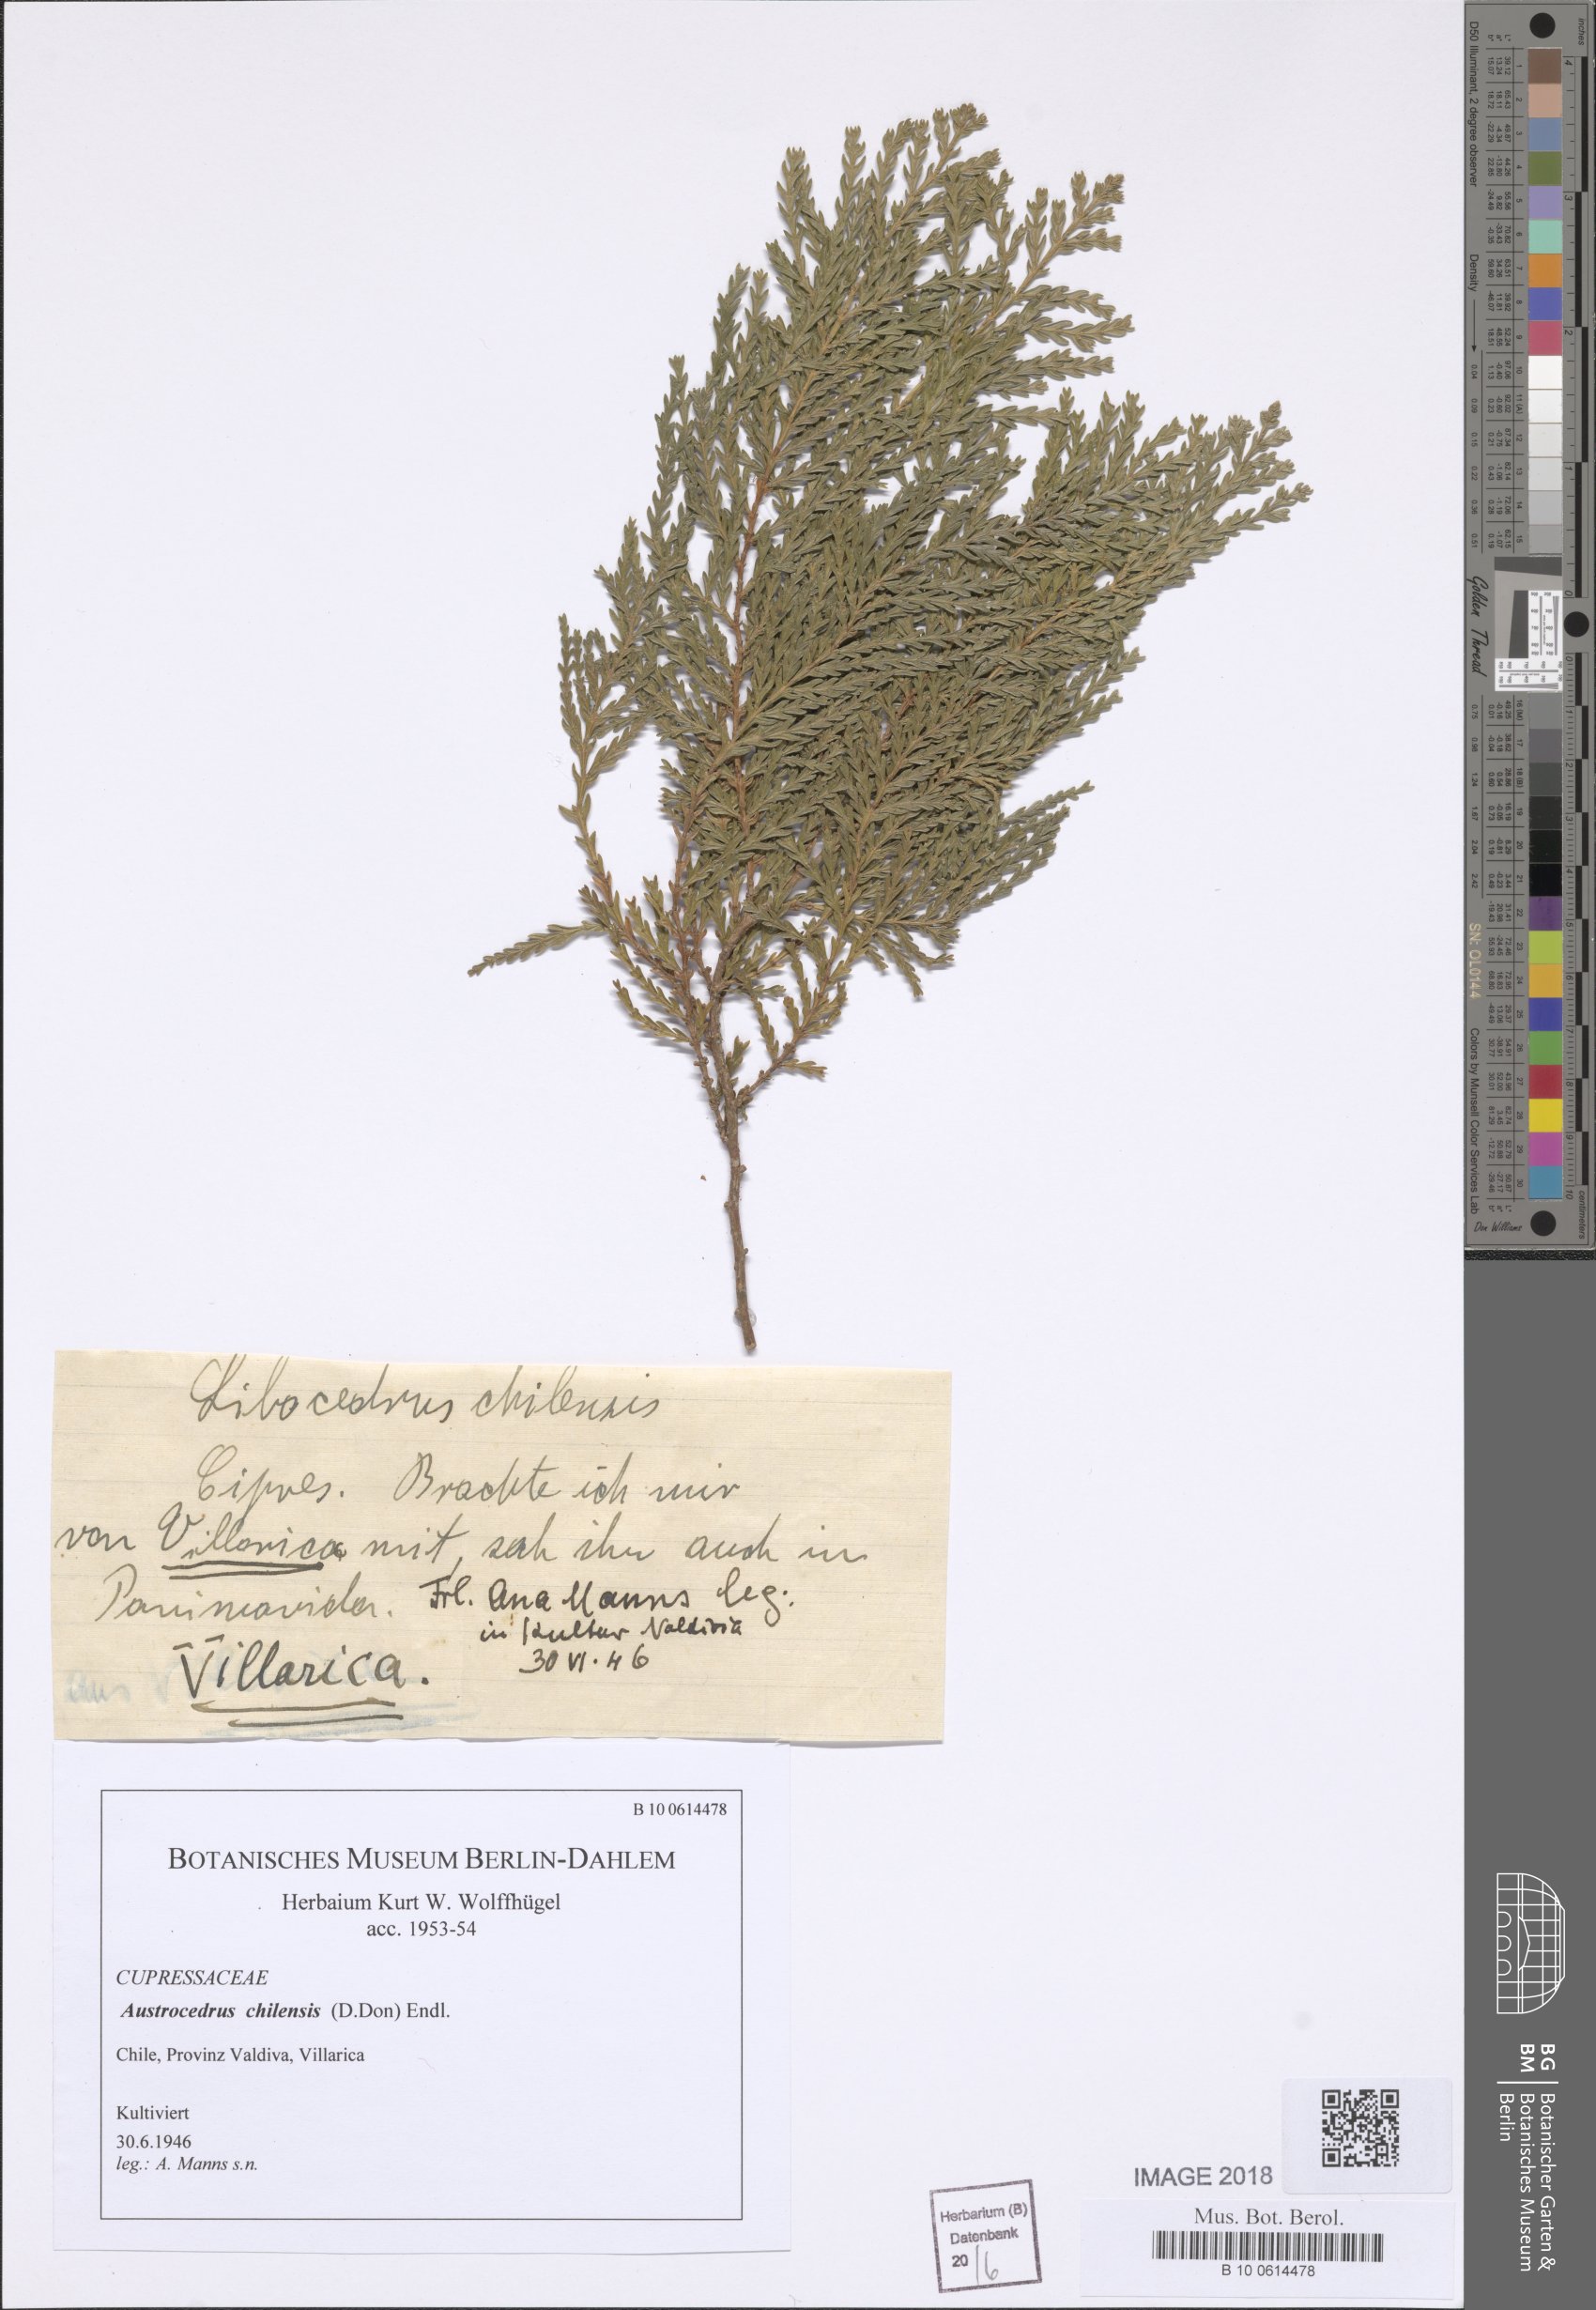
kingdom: Plantae
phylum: Tracheophyta
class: Pinopsida
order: Pinales
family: Cupressaceae
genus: Austrocedrus
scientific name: Austrocedrus chilensis
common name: Chilean incense-cedar
